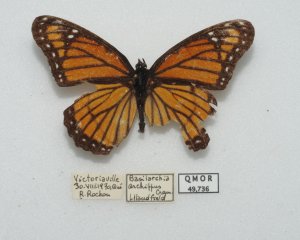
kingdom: Animalia
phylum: Arthropoda
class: Insecta
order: Lepidoptera
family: Nymphalidae
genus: Limenitis
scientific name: Limenitis archippus
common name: Viceroy
